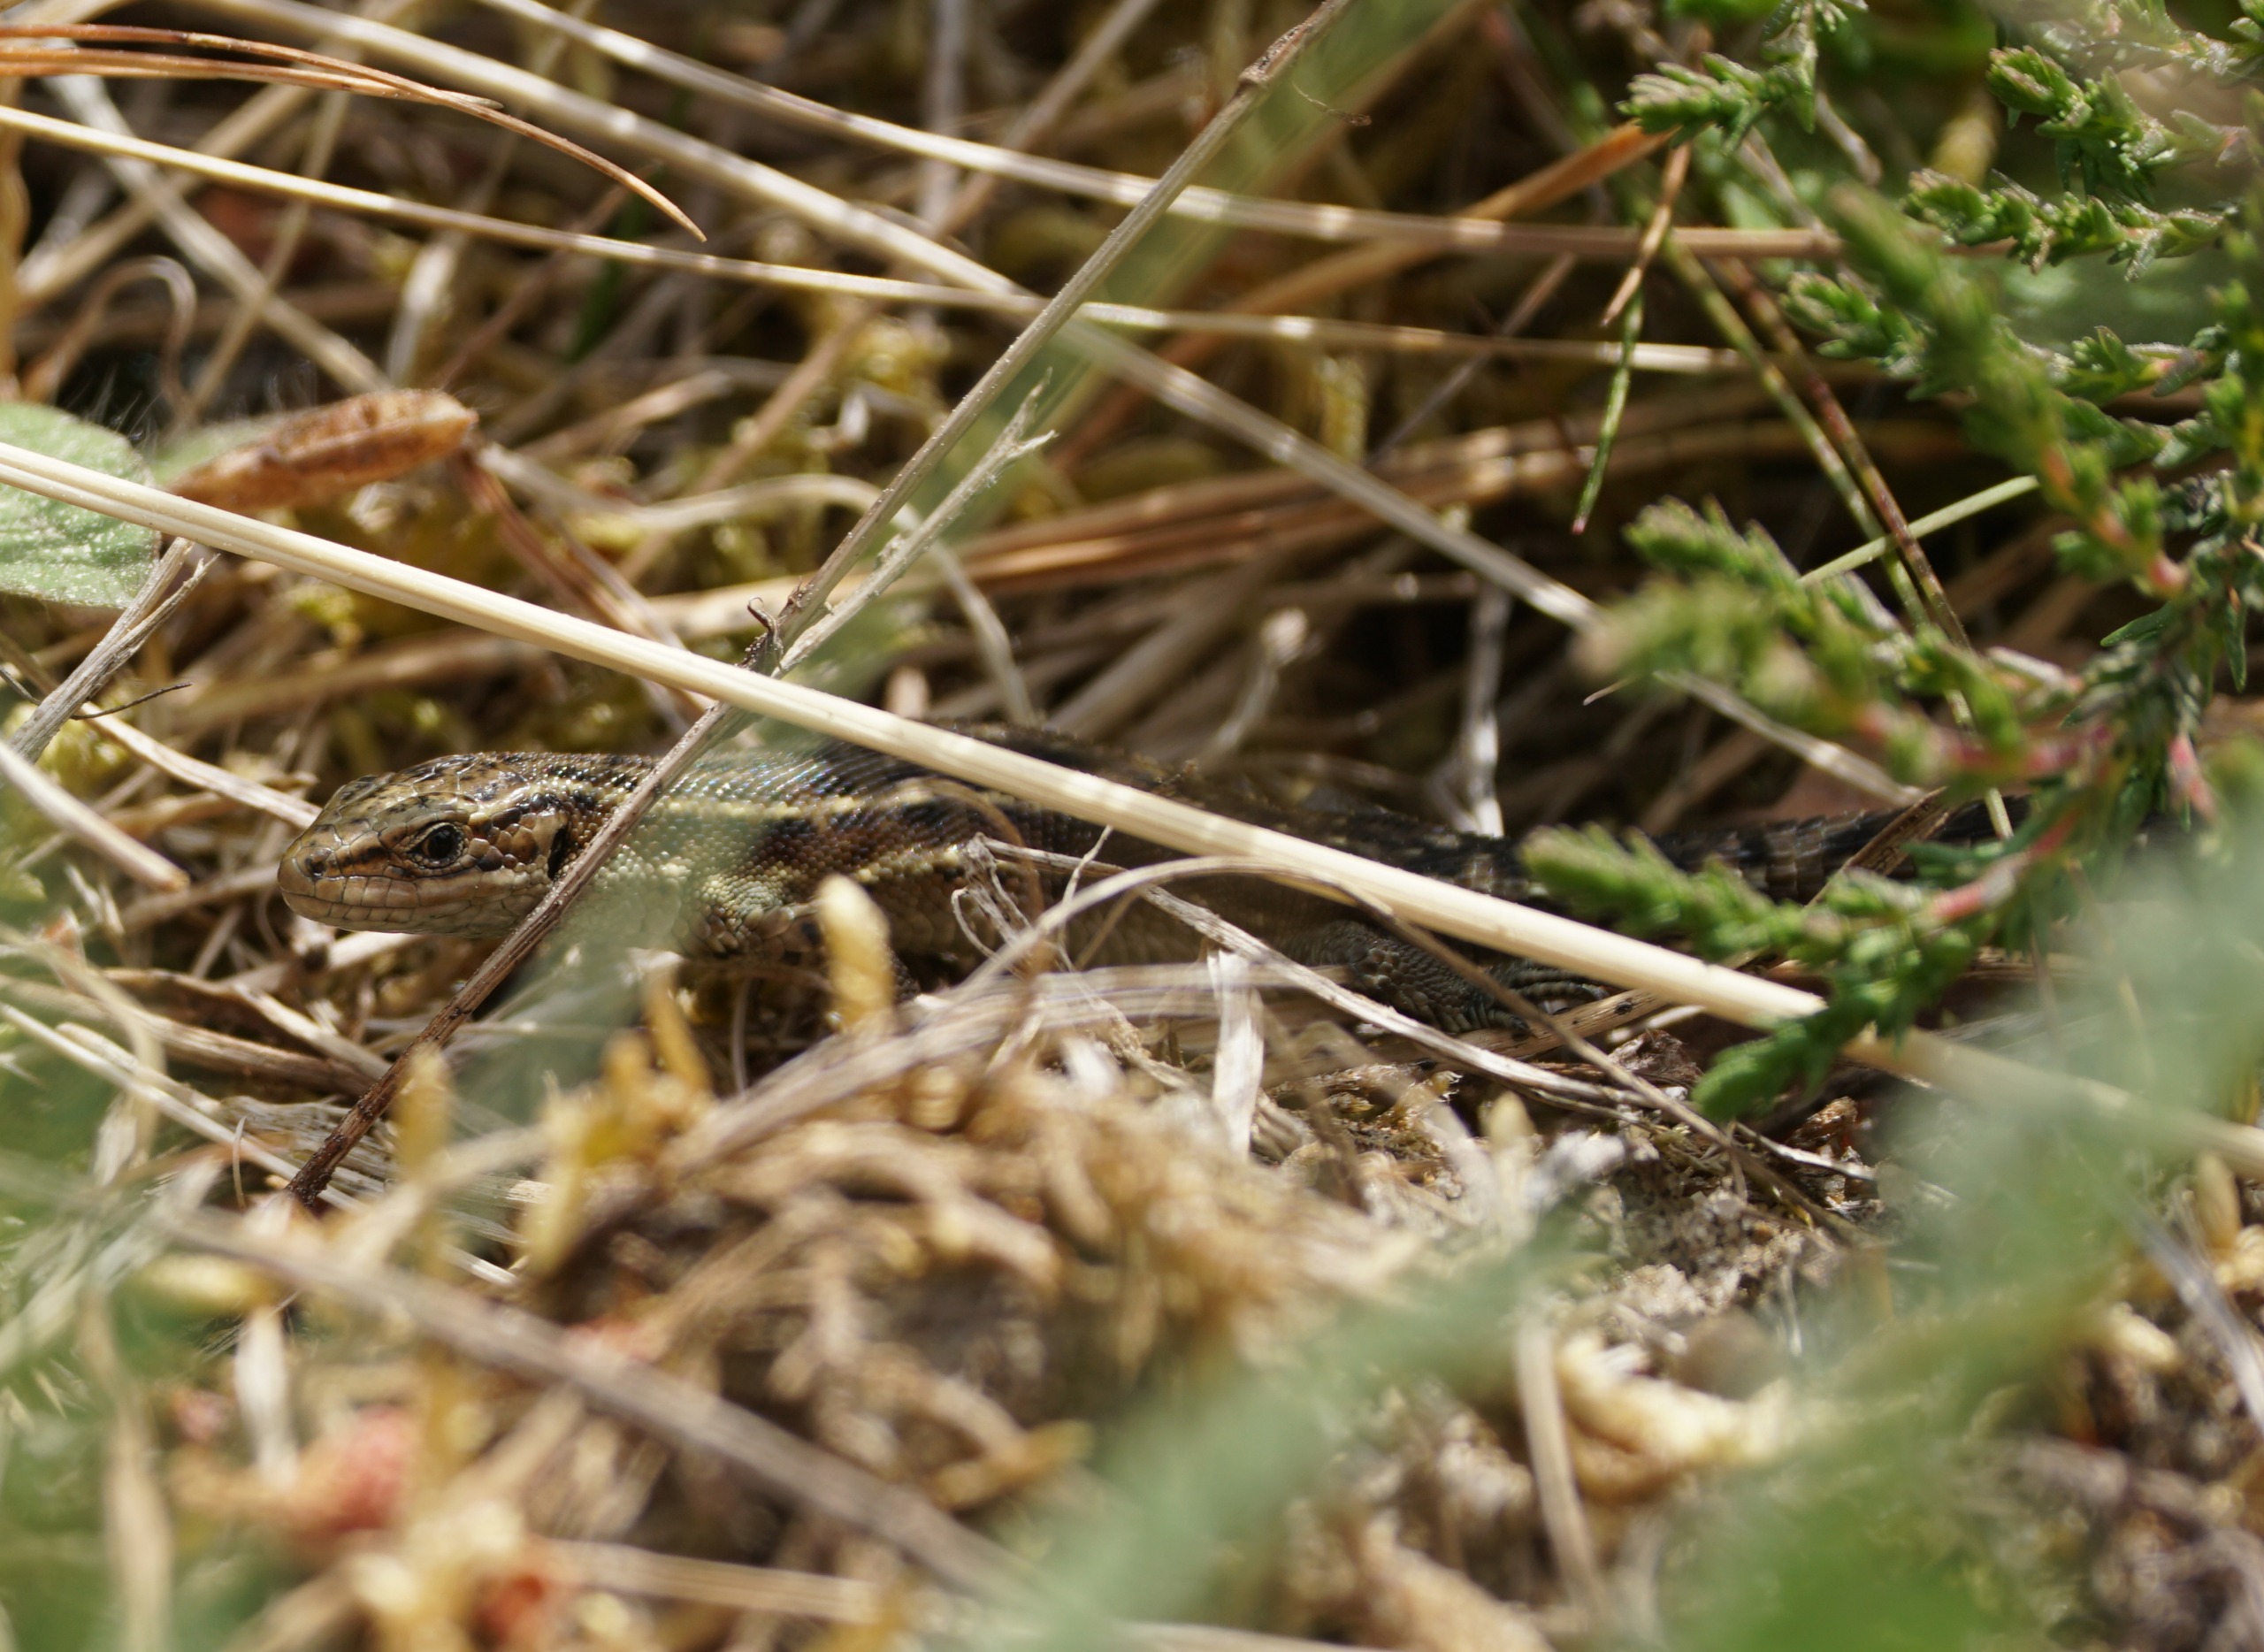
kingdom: Animalia
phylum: Chordata
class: Squamata
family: Lacertidae
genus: Zootoca
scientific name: Zootoca vivipara
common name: Skovfirben
